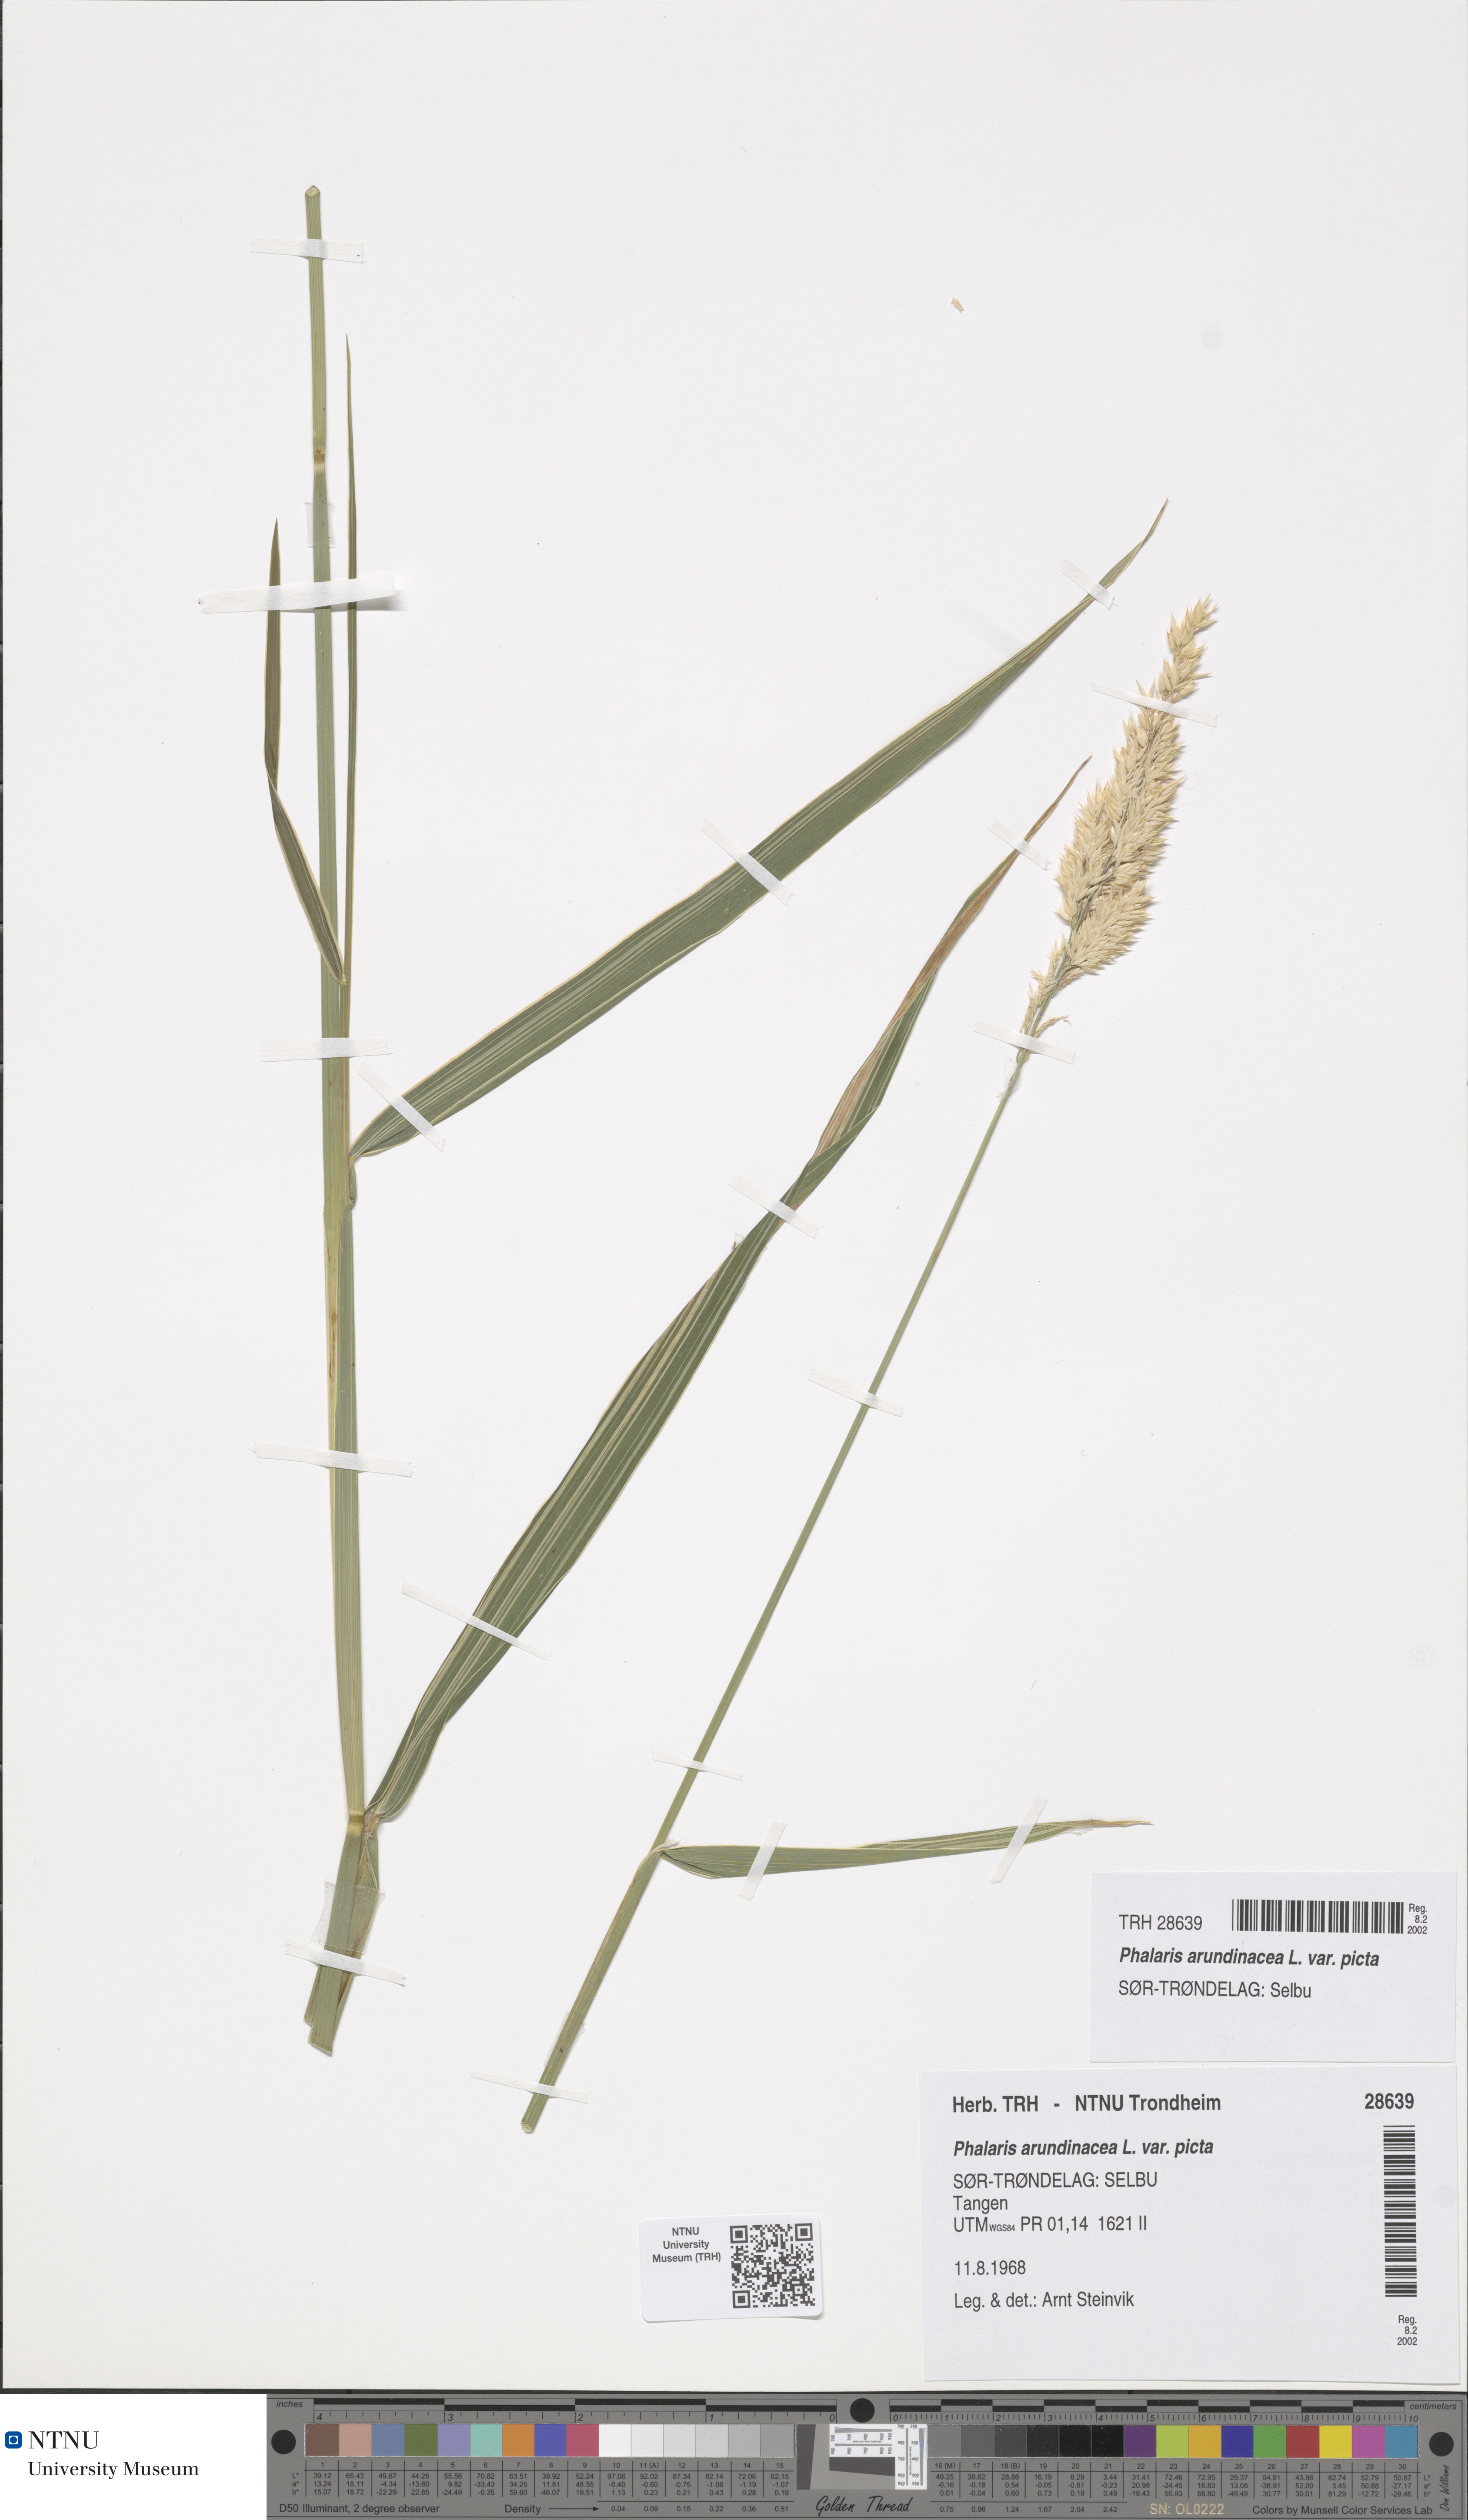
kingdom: Plantae
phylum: Tracheophyta
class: Liliopsida
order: Poales
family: Poaceae
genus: Phalaris
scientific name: Phalaris arundinacea
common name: Reed canary-grass
